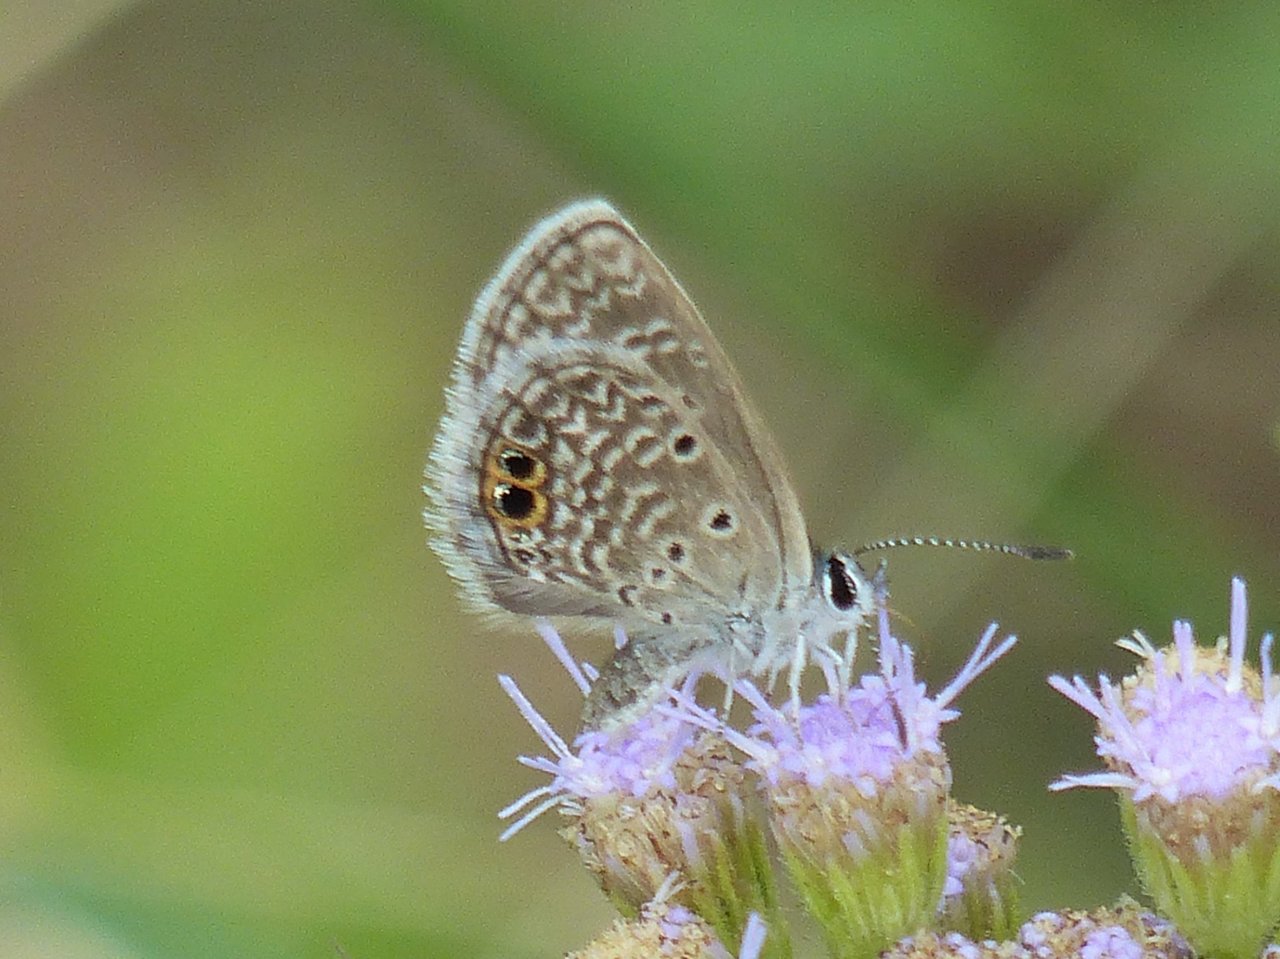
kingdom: Animalia
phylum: Arthropoda
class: Insecta
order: Lepidoptera
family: Lycaenidae
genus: Hemiargus
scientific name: Hemiargus ceraunus
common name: Ceraunus Blue
